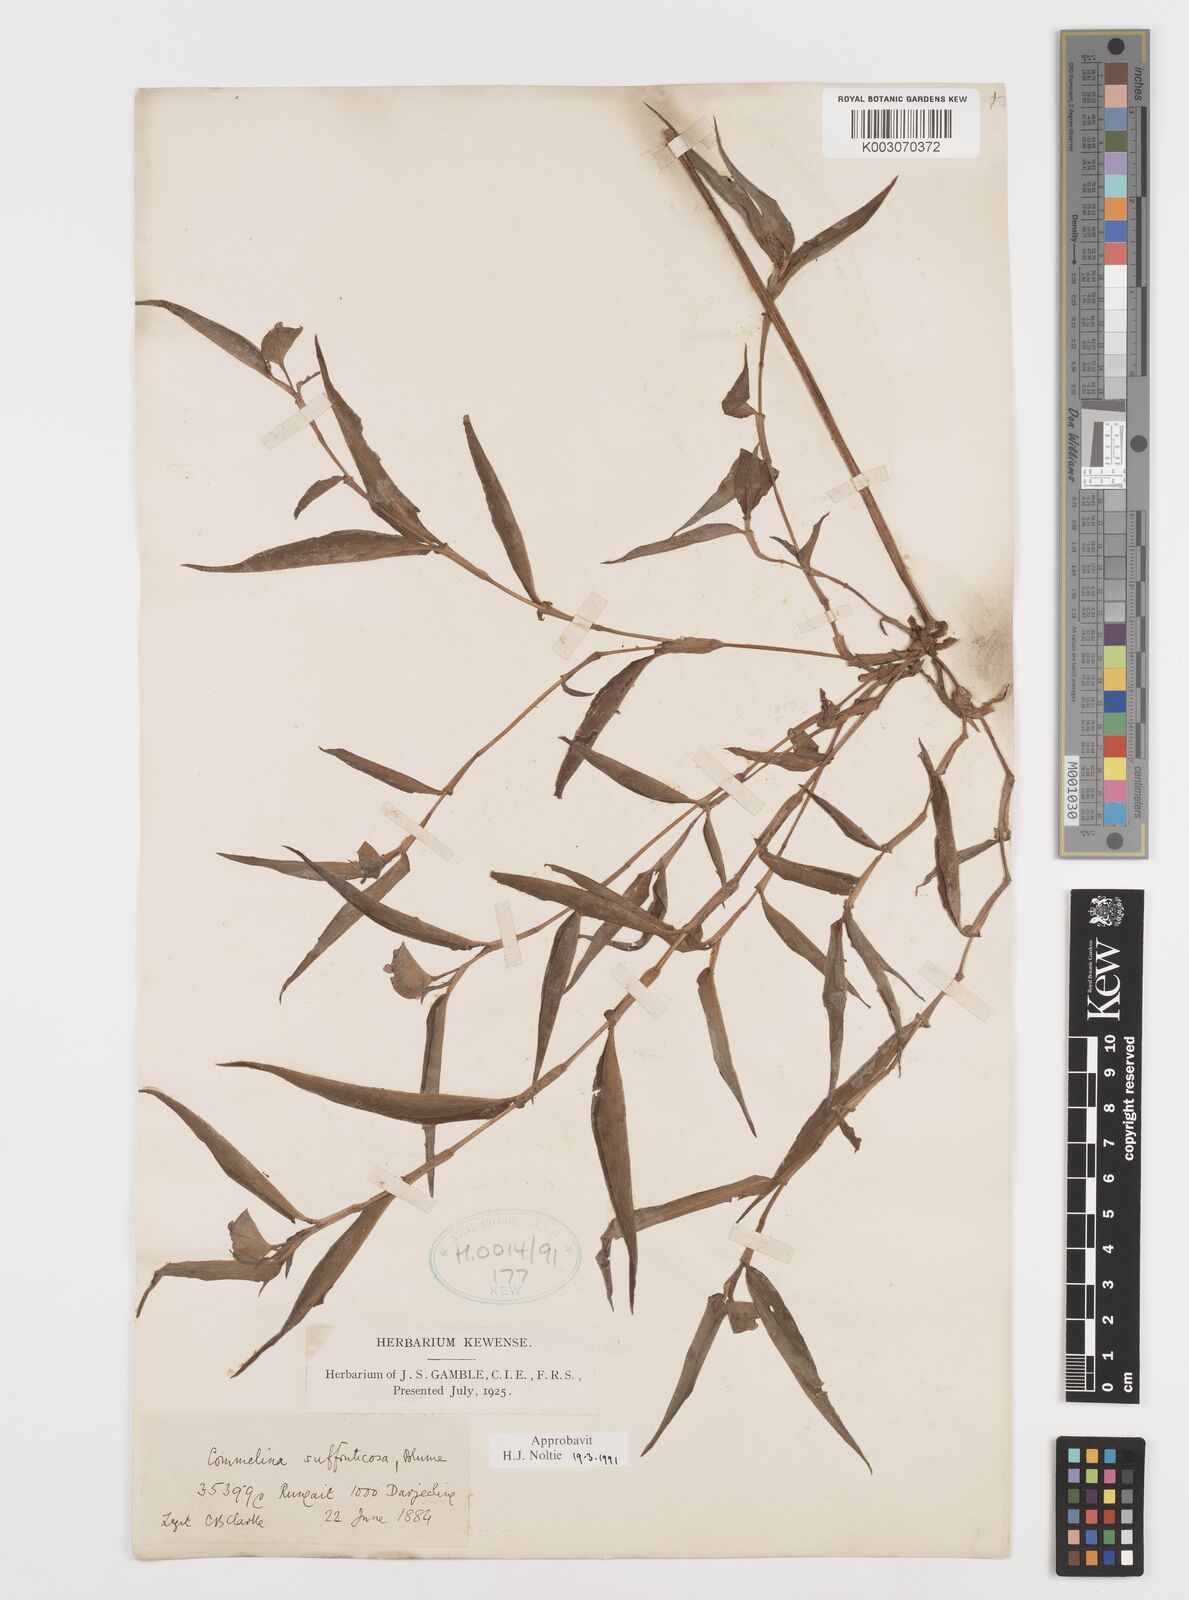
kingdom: Plantae
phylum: Tracheophyta
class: Liliopsida
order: Commelinales
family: Commelinaceae
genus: Commelina
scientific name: Commelina suffruticosa
